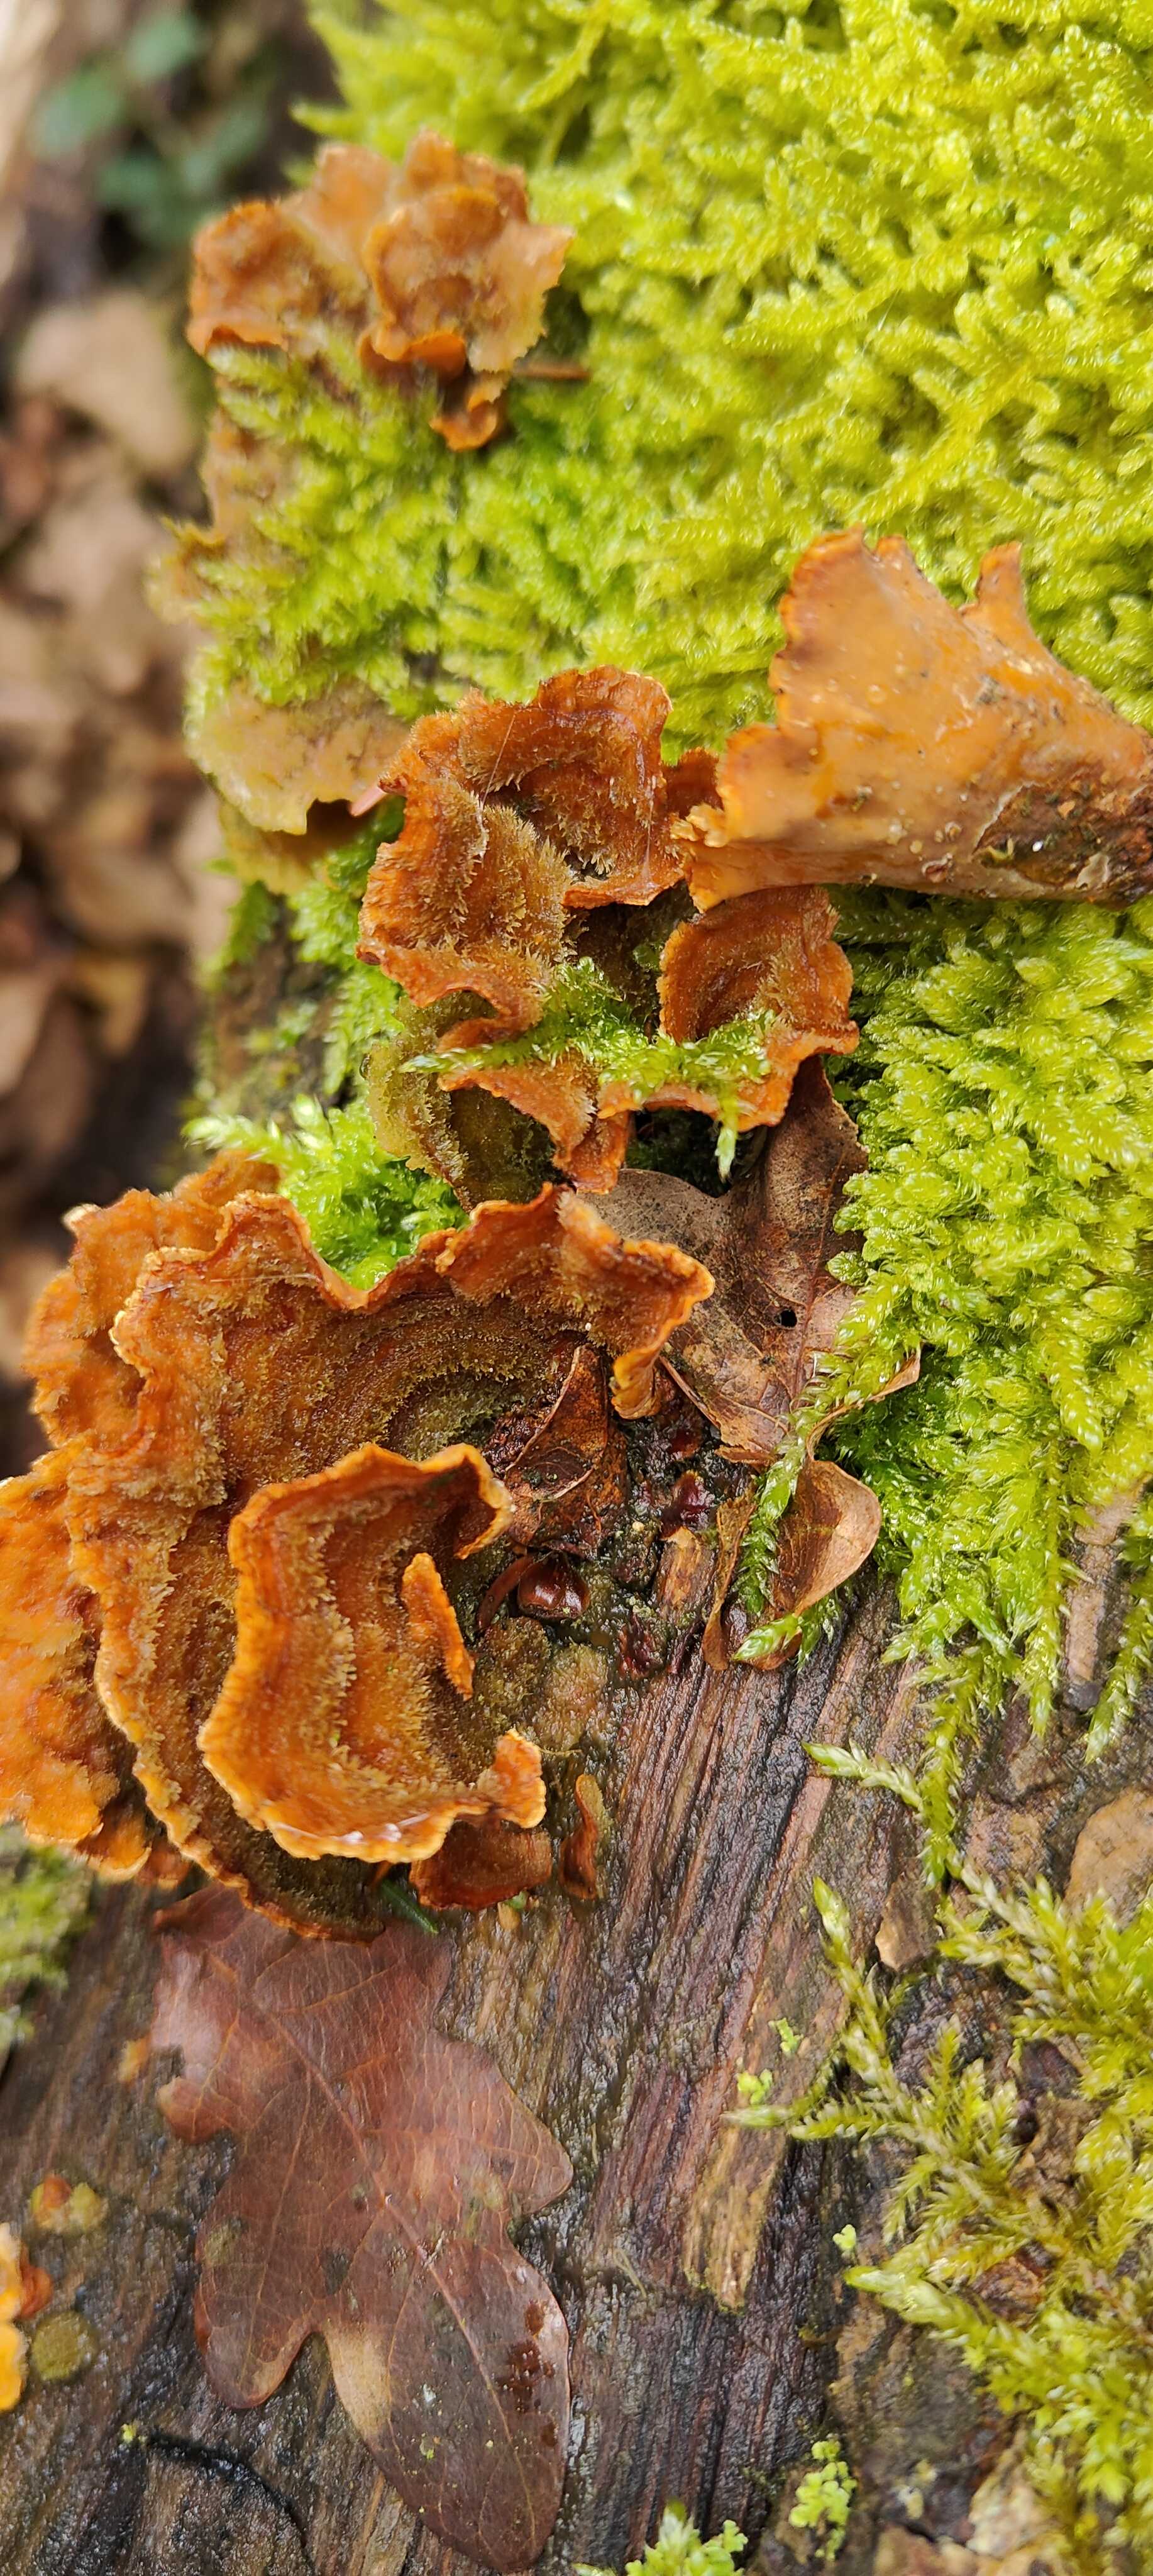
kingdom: Fungi
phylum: Basidiomycota
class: Agaricomycetes
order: Russulales
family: Stereaceae
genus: Stereum
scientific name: Stereum hirsutum
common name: håret lædersvamp
